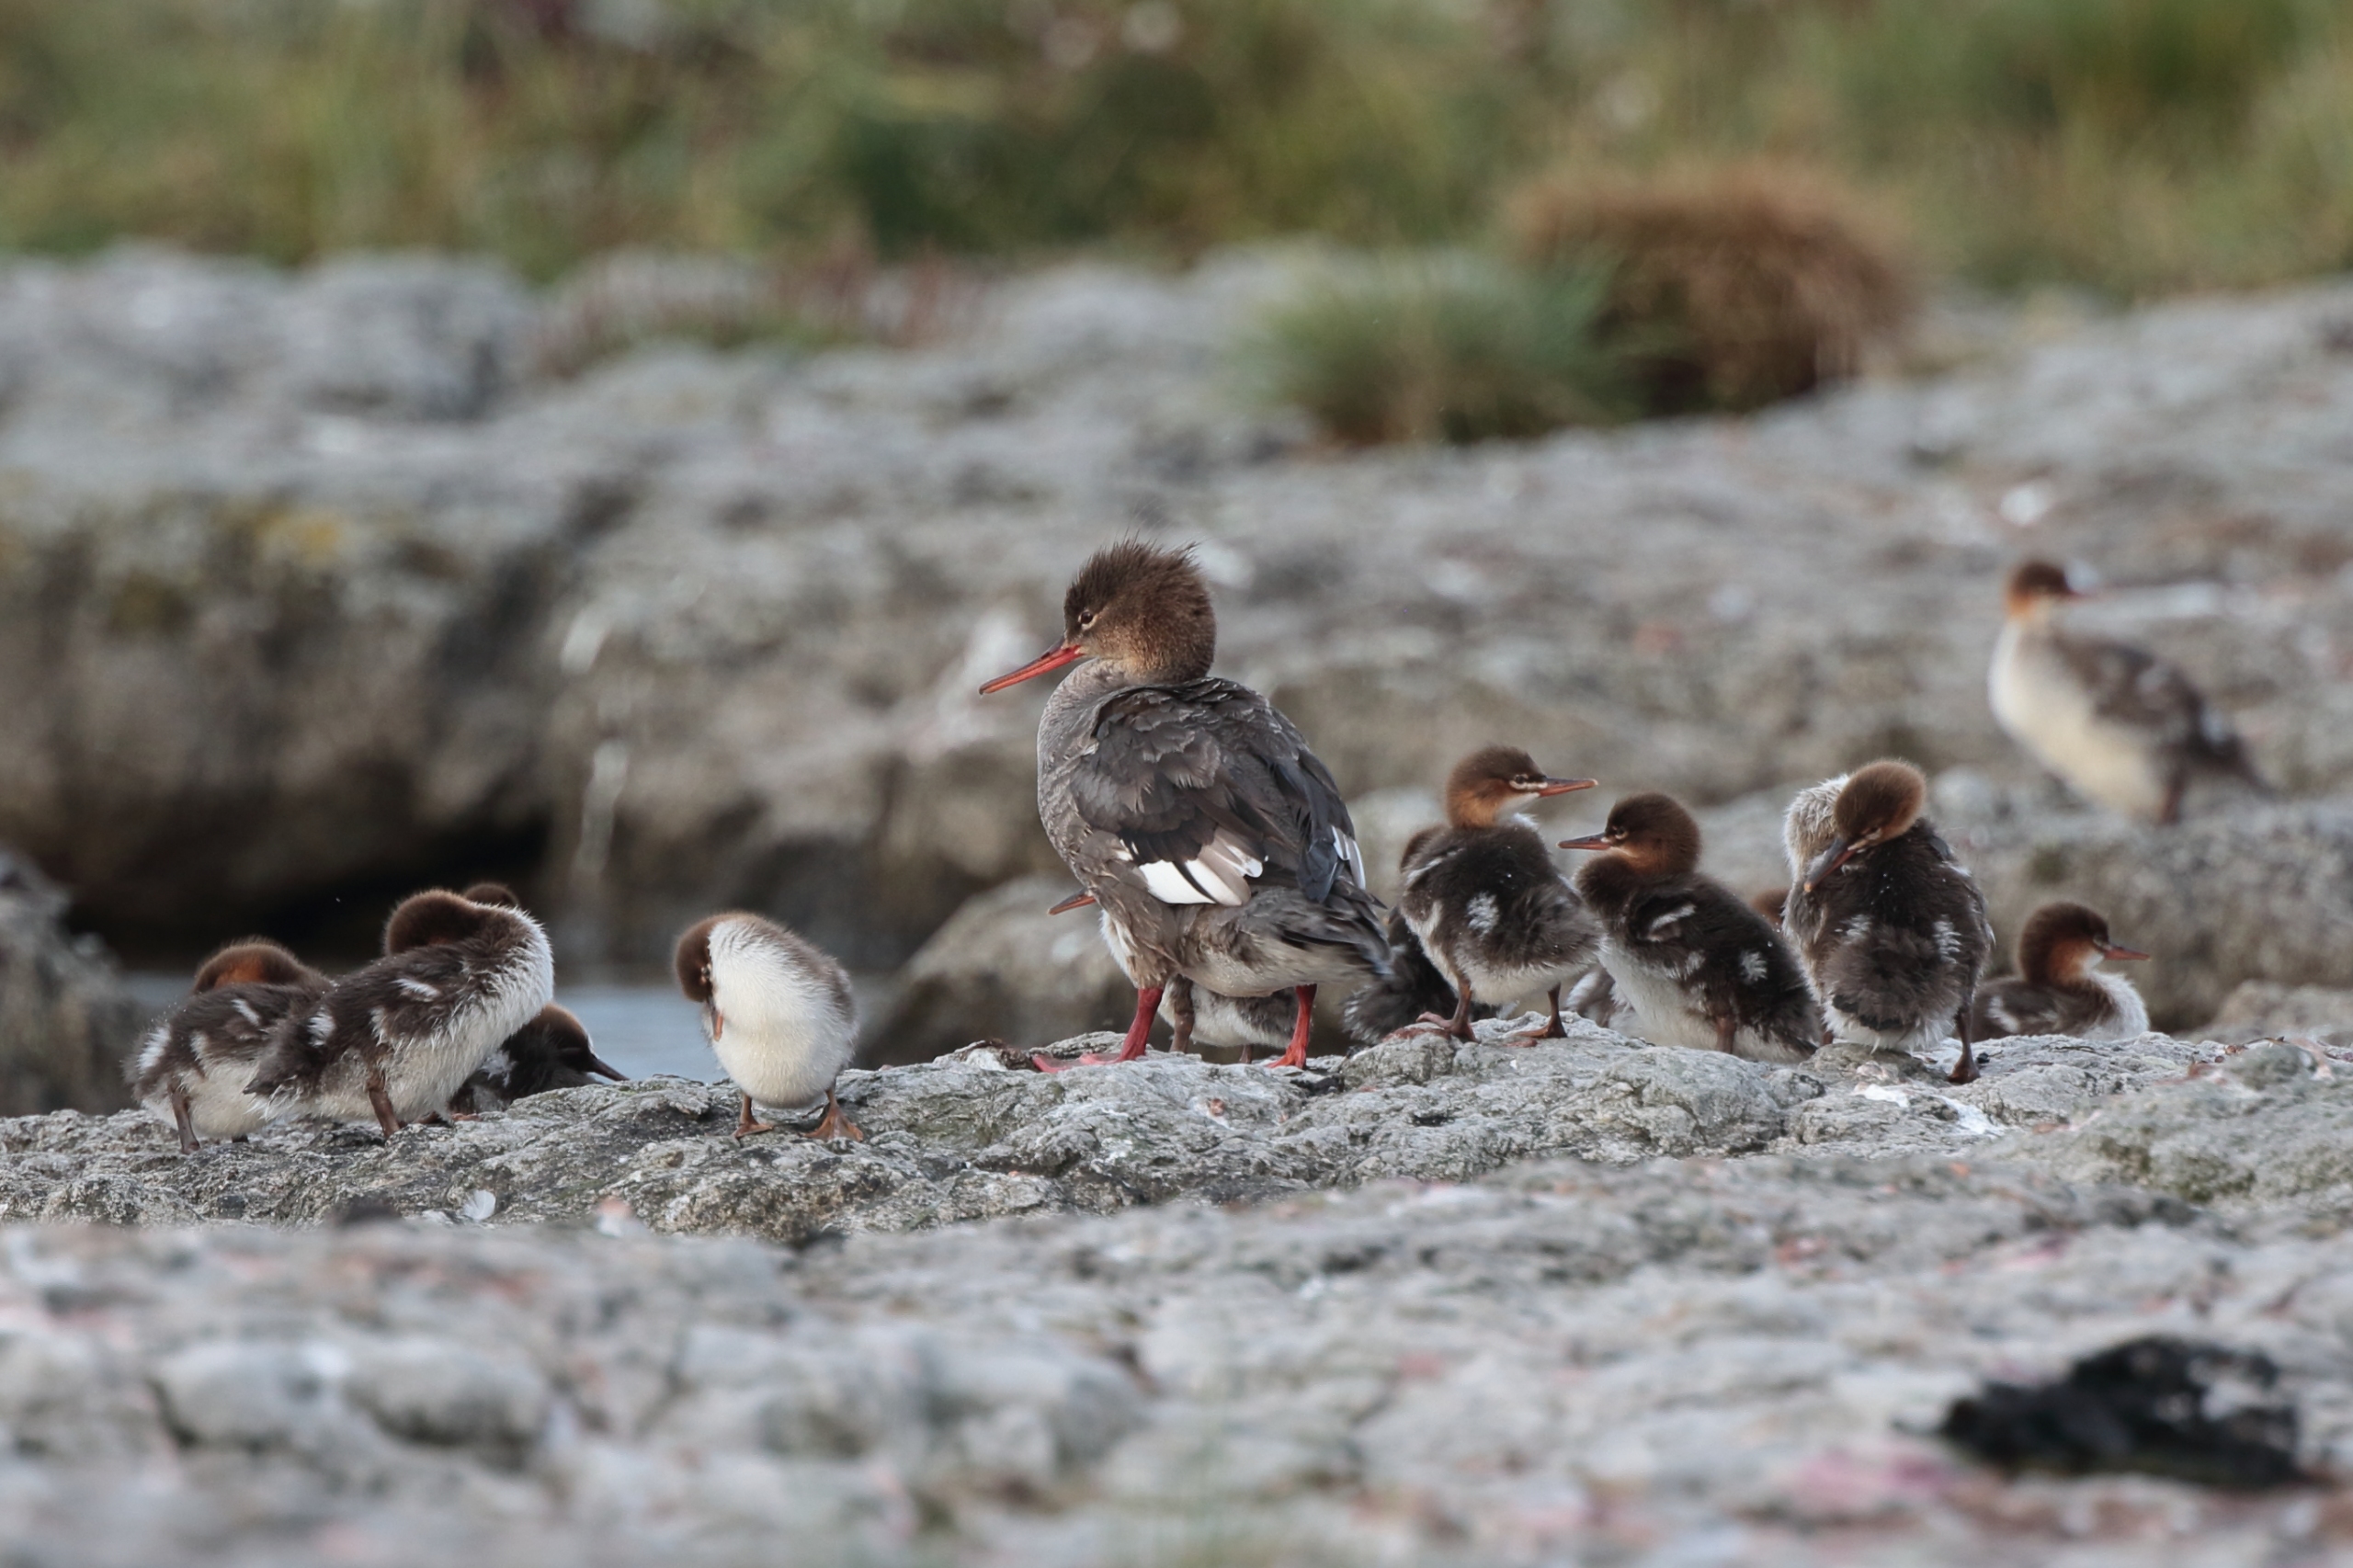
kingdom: Animalia
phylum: Chordata
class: Aves
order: Anseriformes
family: Anatidae
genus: Mergus
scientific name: Mergus serrator
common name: Toppet skallesluger
